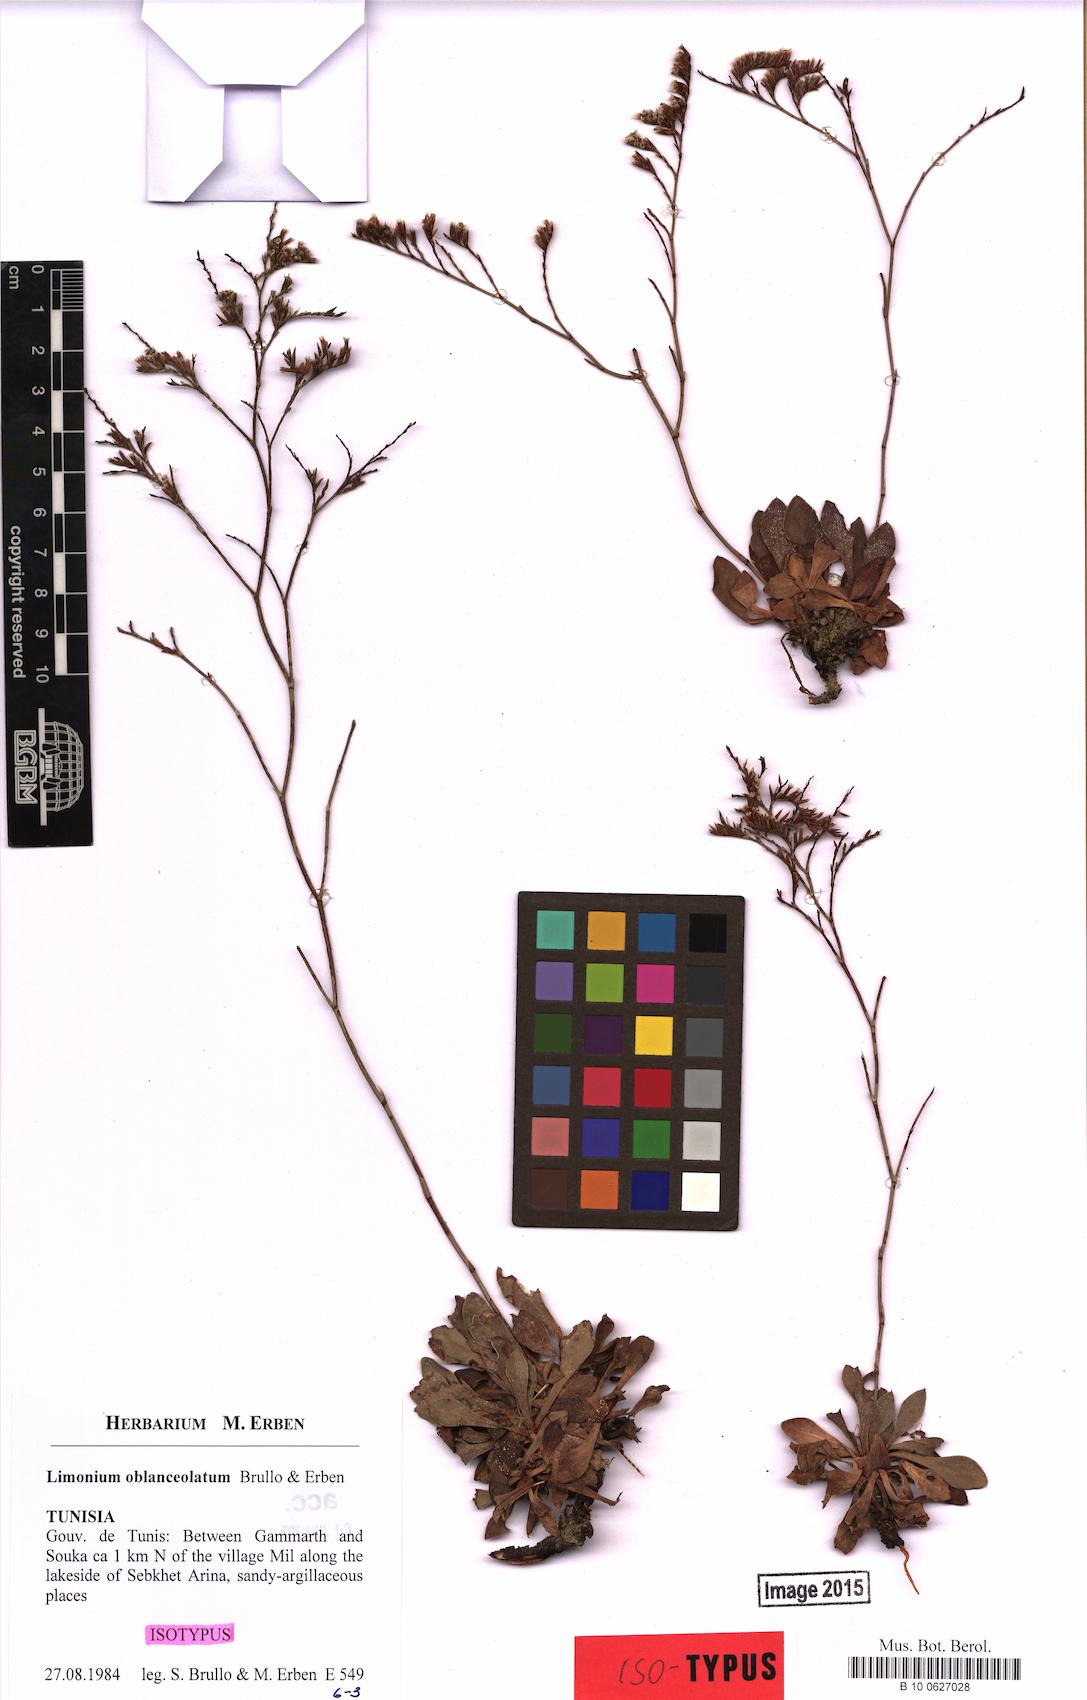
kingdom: Plantae
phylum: Tracheophyta
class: Magnoliopsida
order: Caryophyllales
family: Plumbaginaceae
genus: Limonium
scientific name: Limonium oblanceolatum
